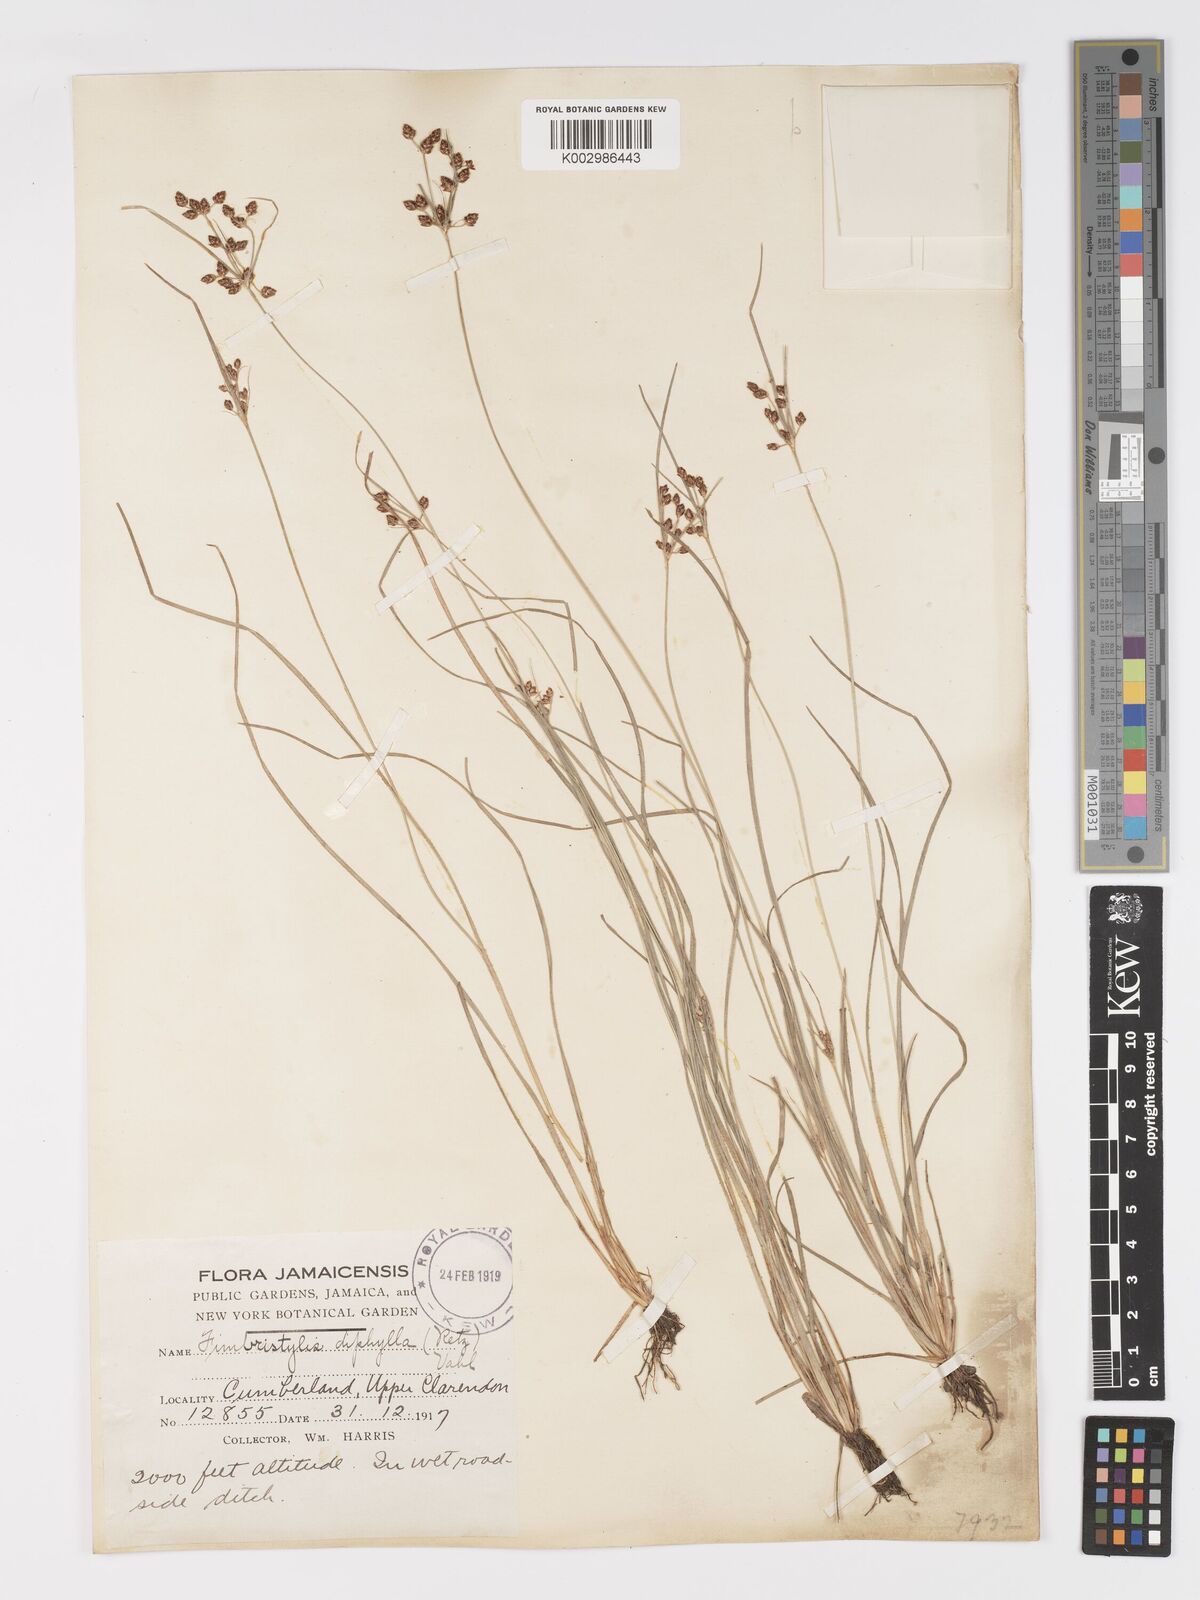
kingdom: Plantae
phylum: Tracheophyta
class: Liliopsida
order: Poales
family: Cyperaceae
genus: Fimbristylis
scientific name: Fimbristylis dichotoma
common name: Forked fimbry
